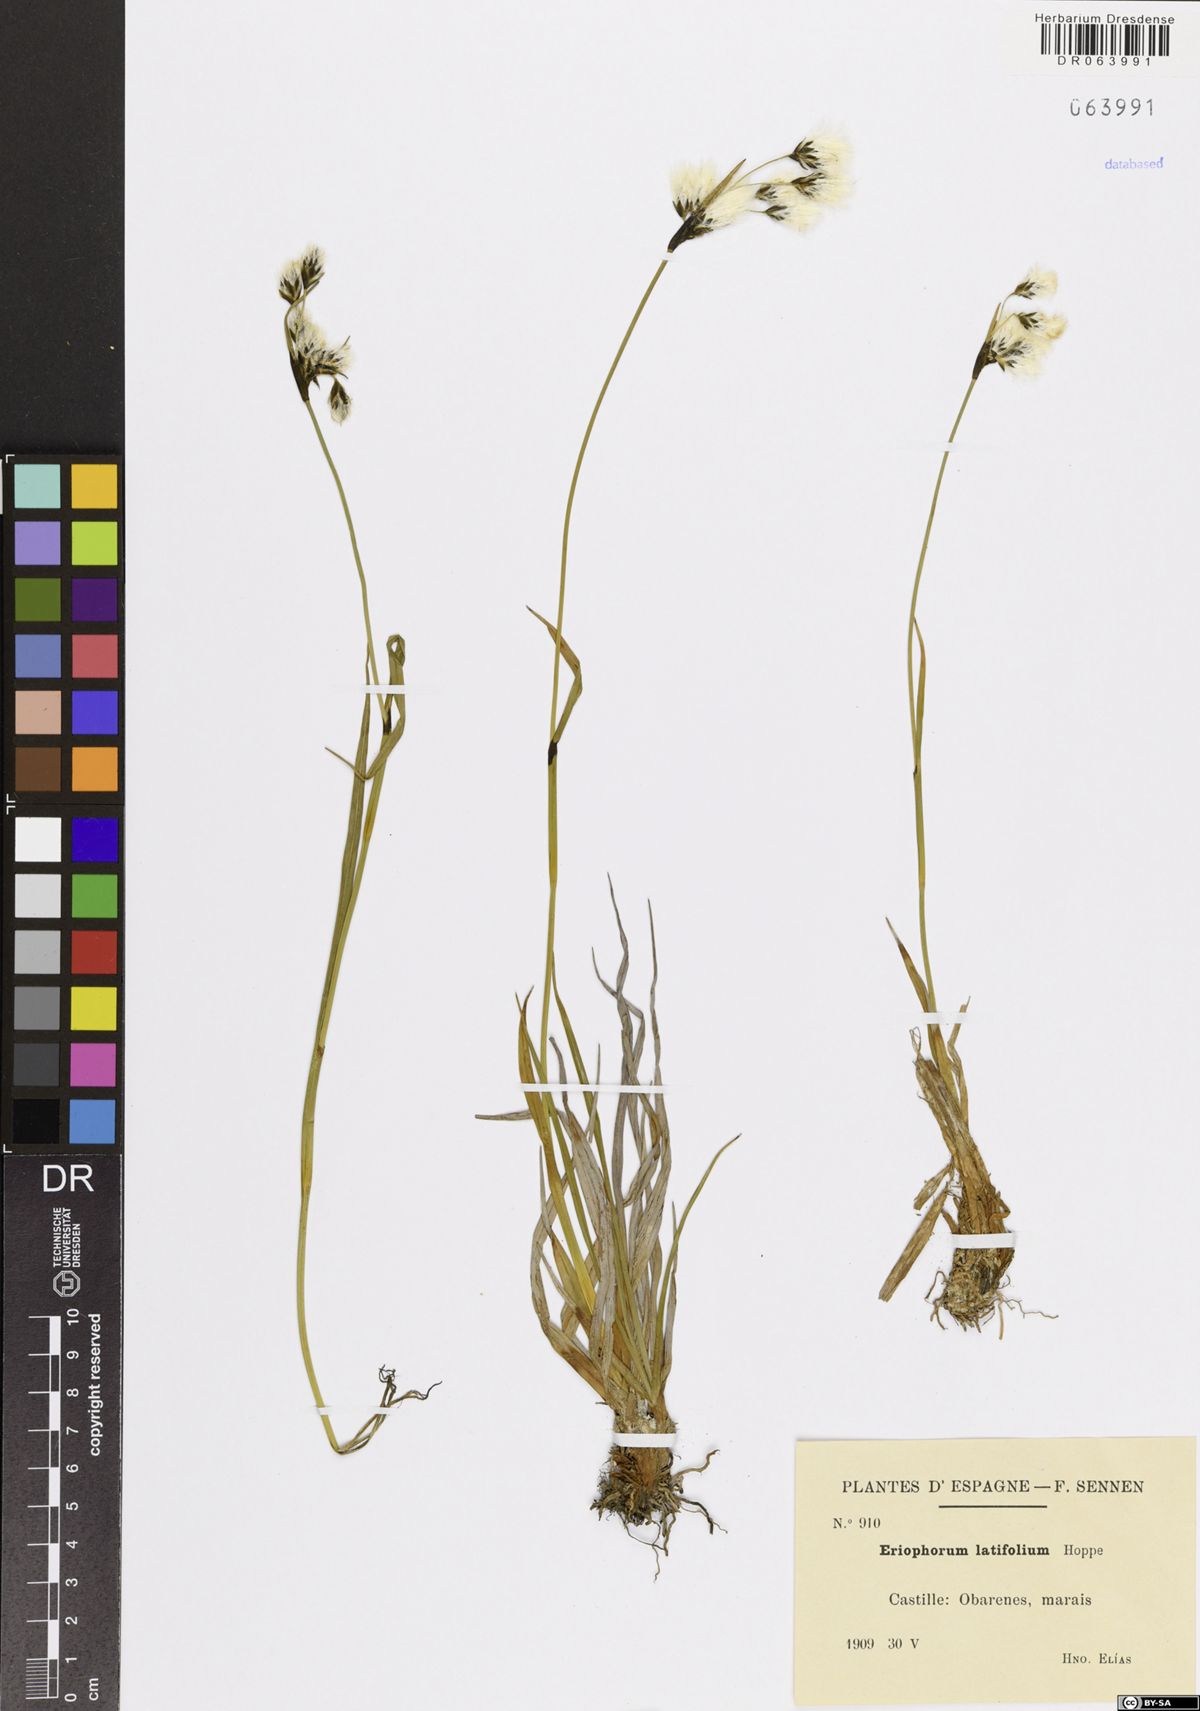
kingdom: Plantae
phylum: Tracheophyta
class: Liliopsida
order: Poales
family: Cyperaceae
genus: Eriophorum
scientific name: Eriophorum latifolium
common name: Broad-leaved cottongrass
